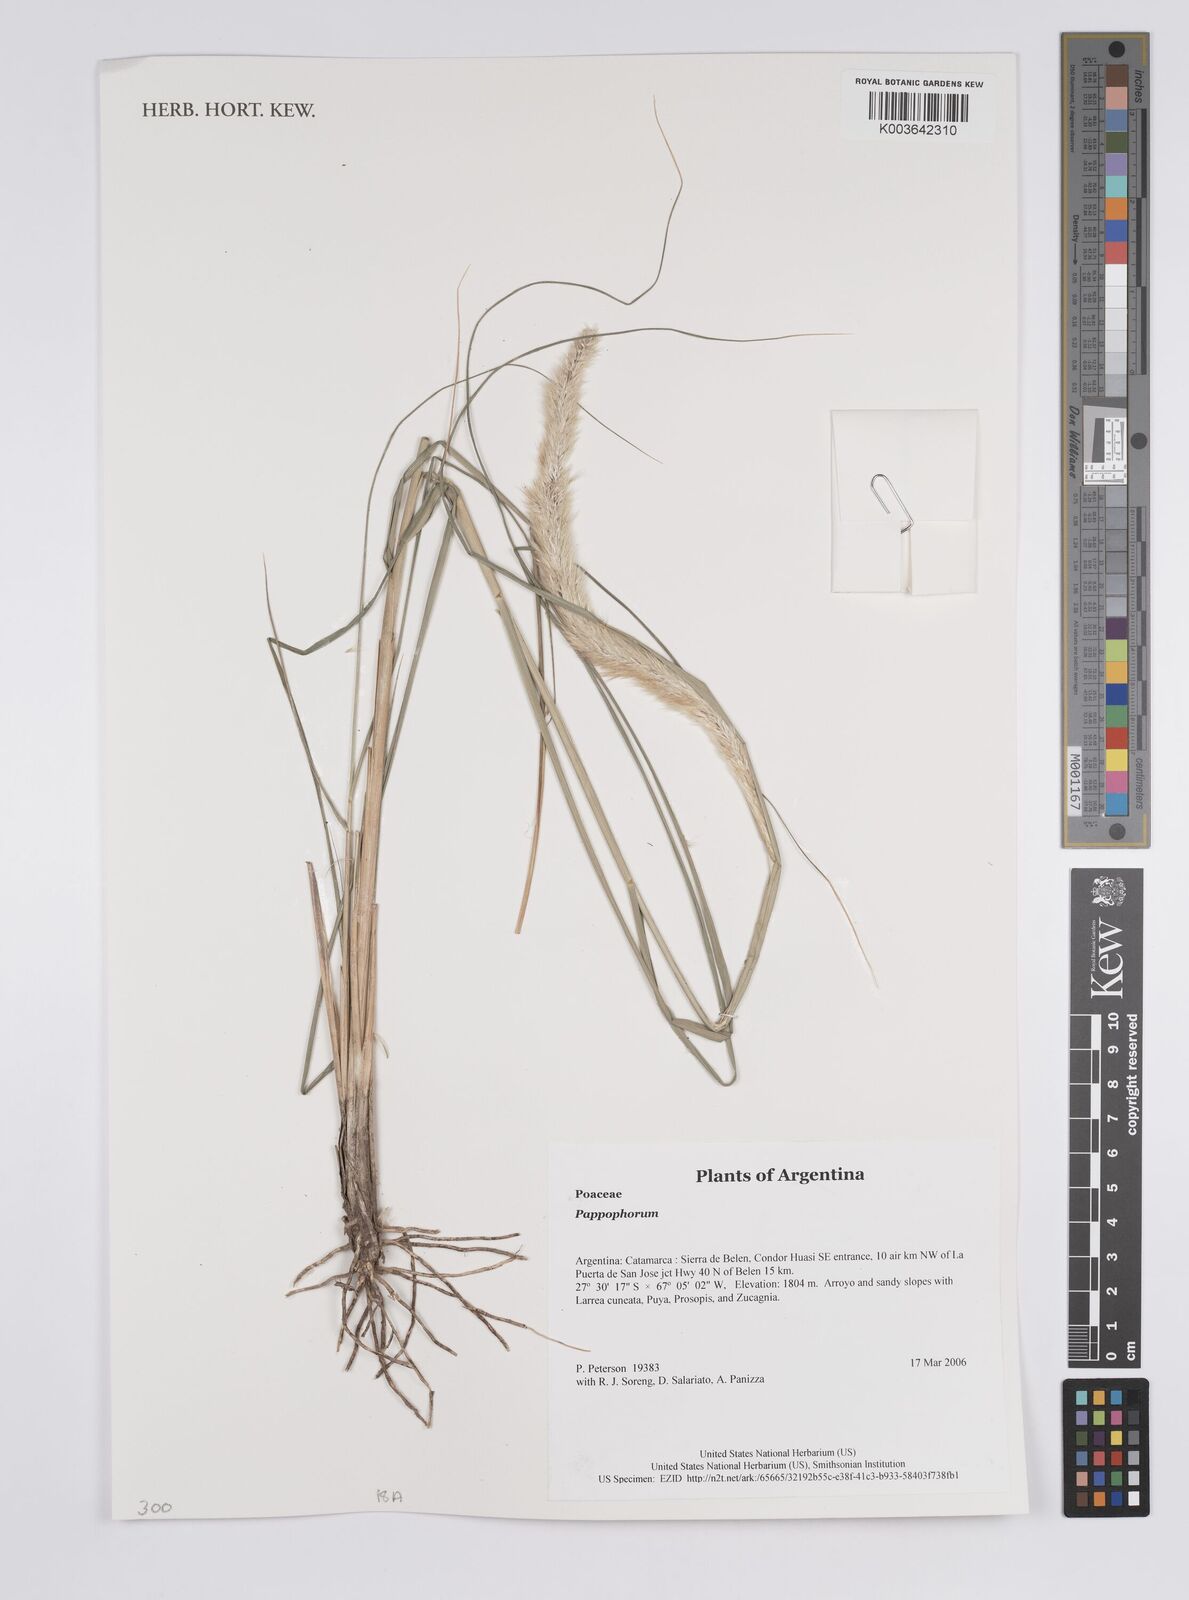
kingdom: Plantae
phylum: Tracheophyta
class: Liliopsida
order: Poales
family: Poaceae
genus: Pappophorum
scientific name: Pappophorum
